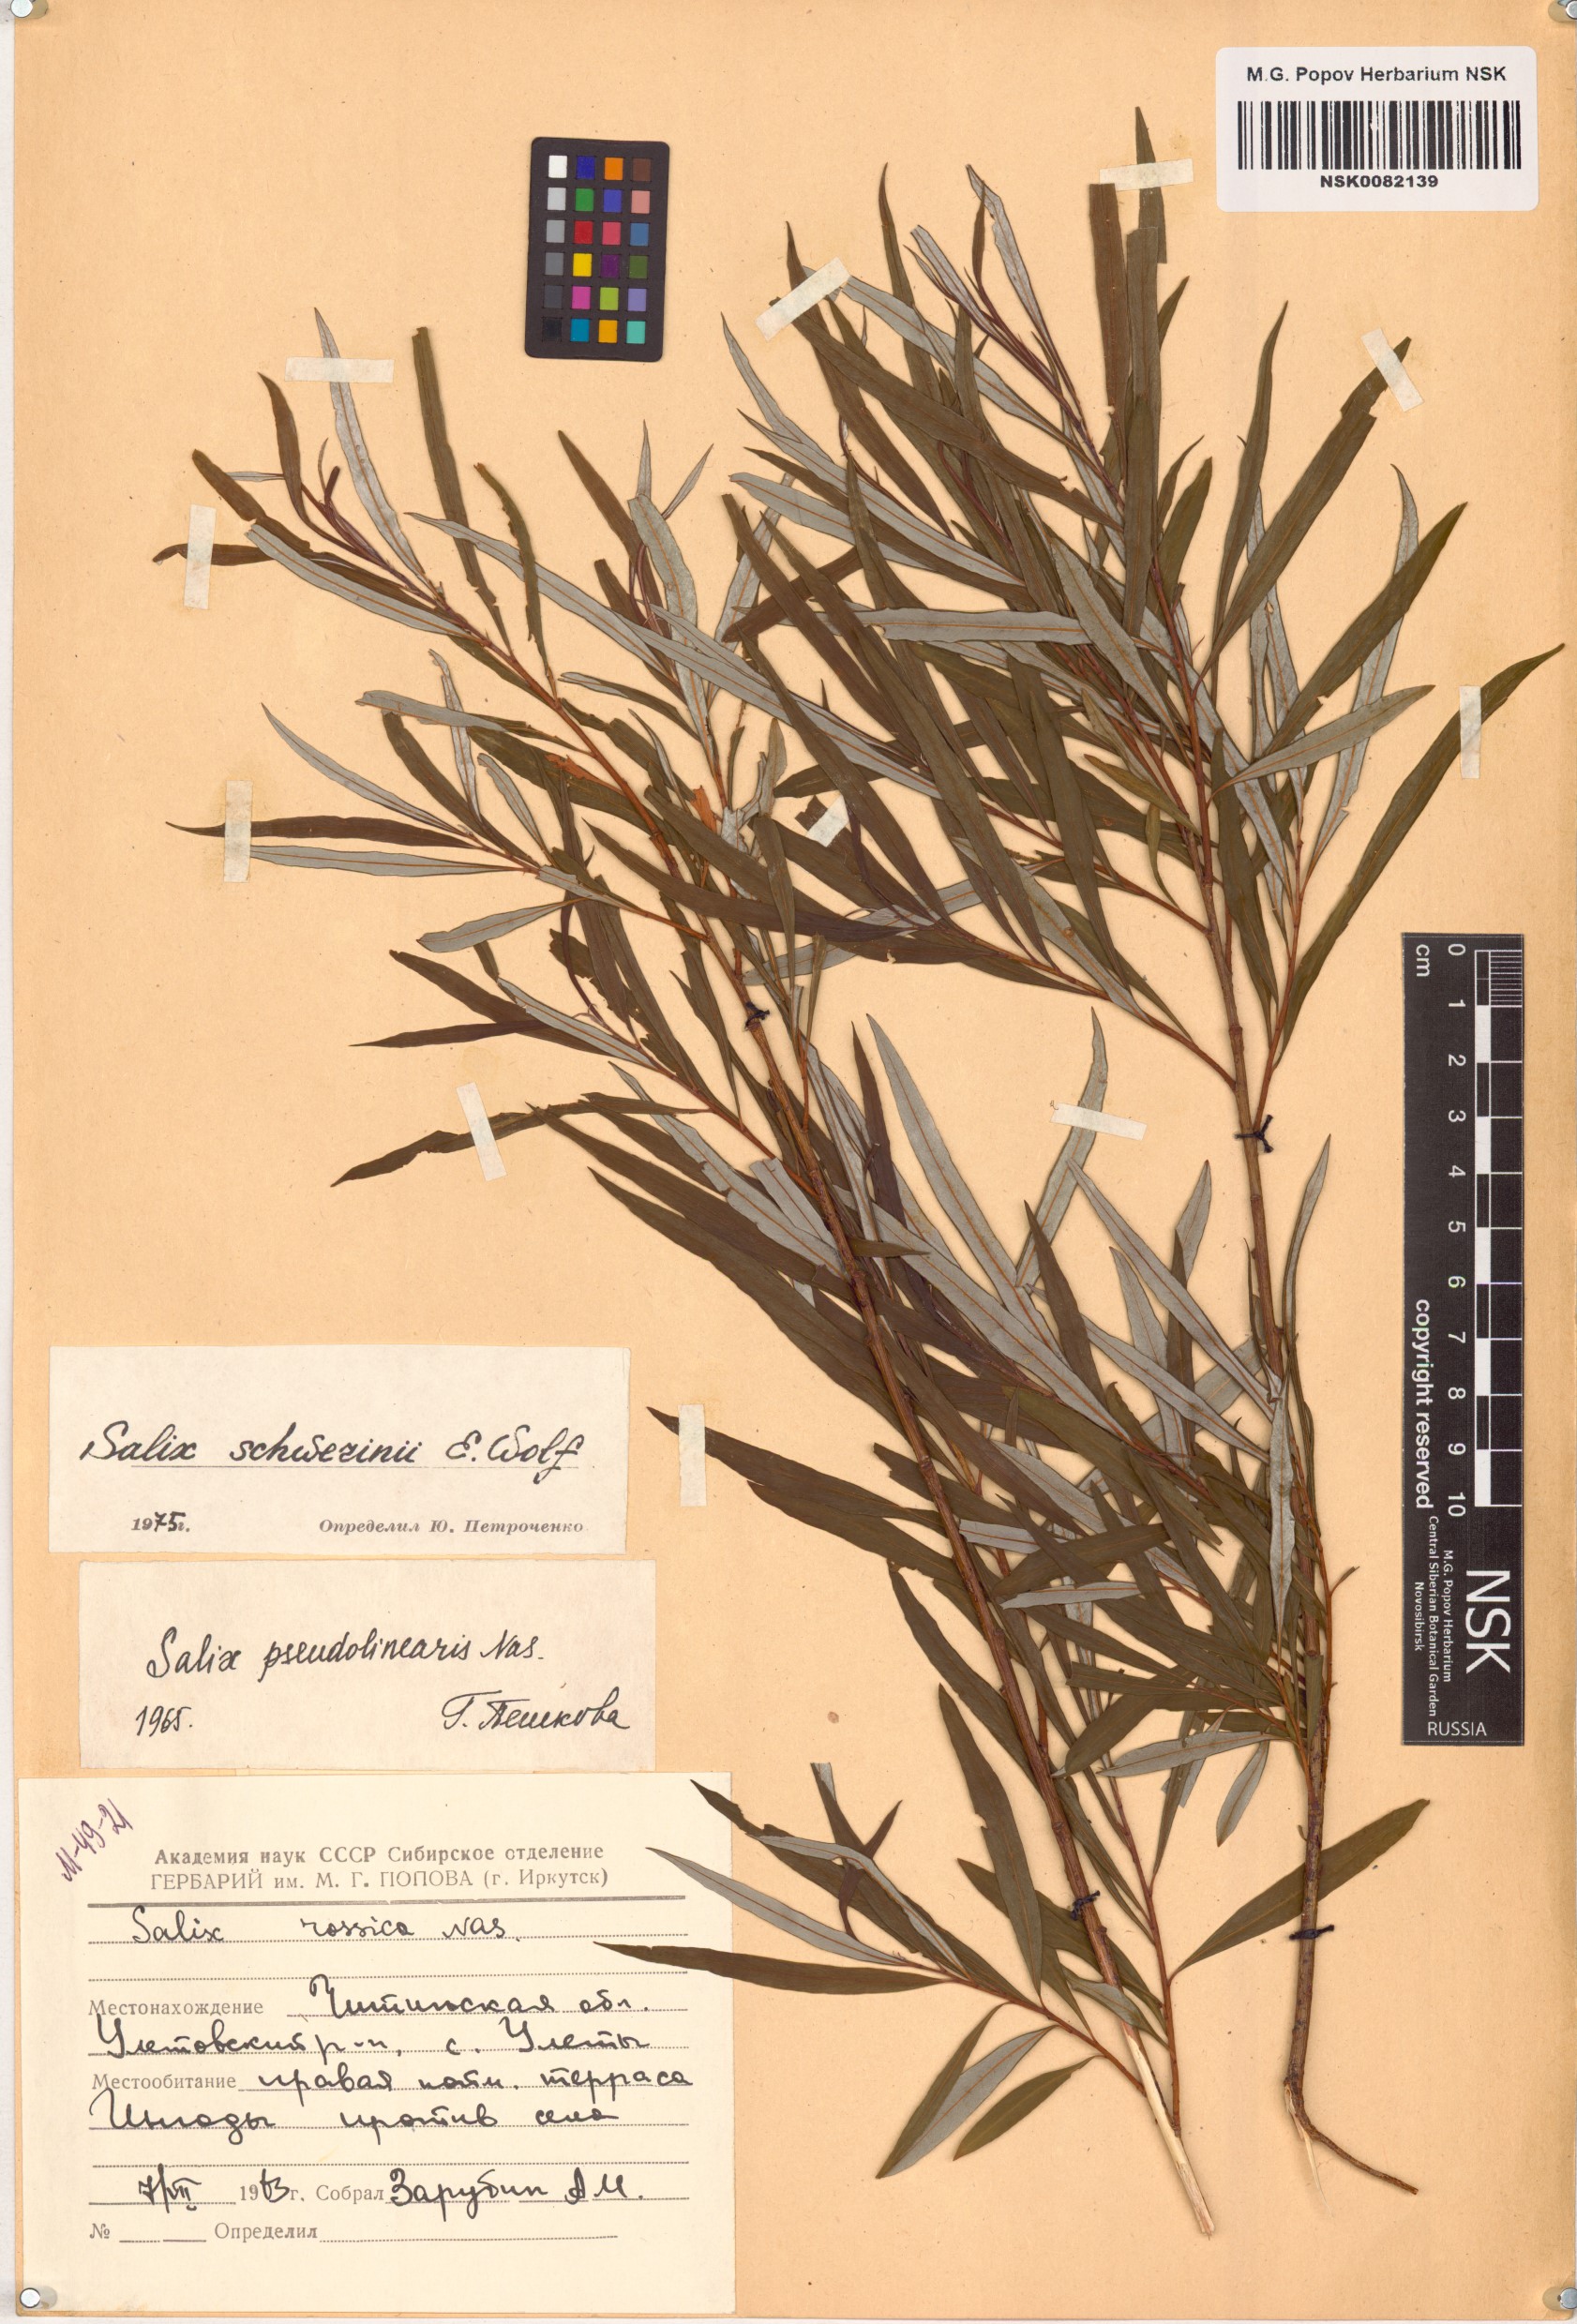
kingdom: Plantae
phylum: Tracheophyta
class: Magnoliopsida
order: Malpighiales
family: Salicaceae
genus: Salix
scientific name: Salix schwerinii
